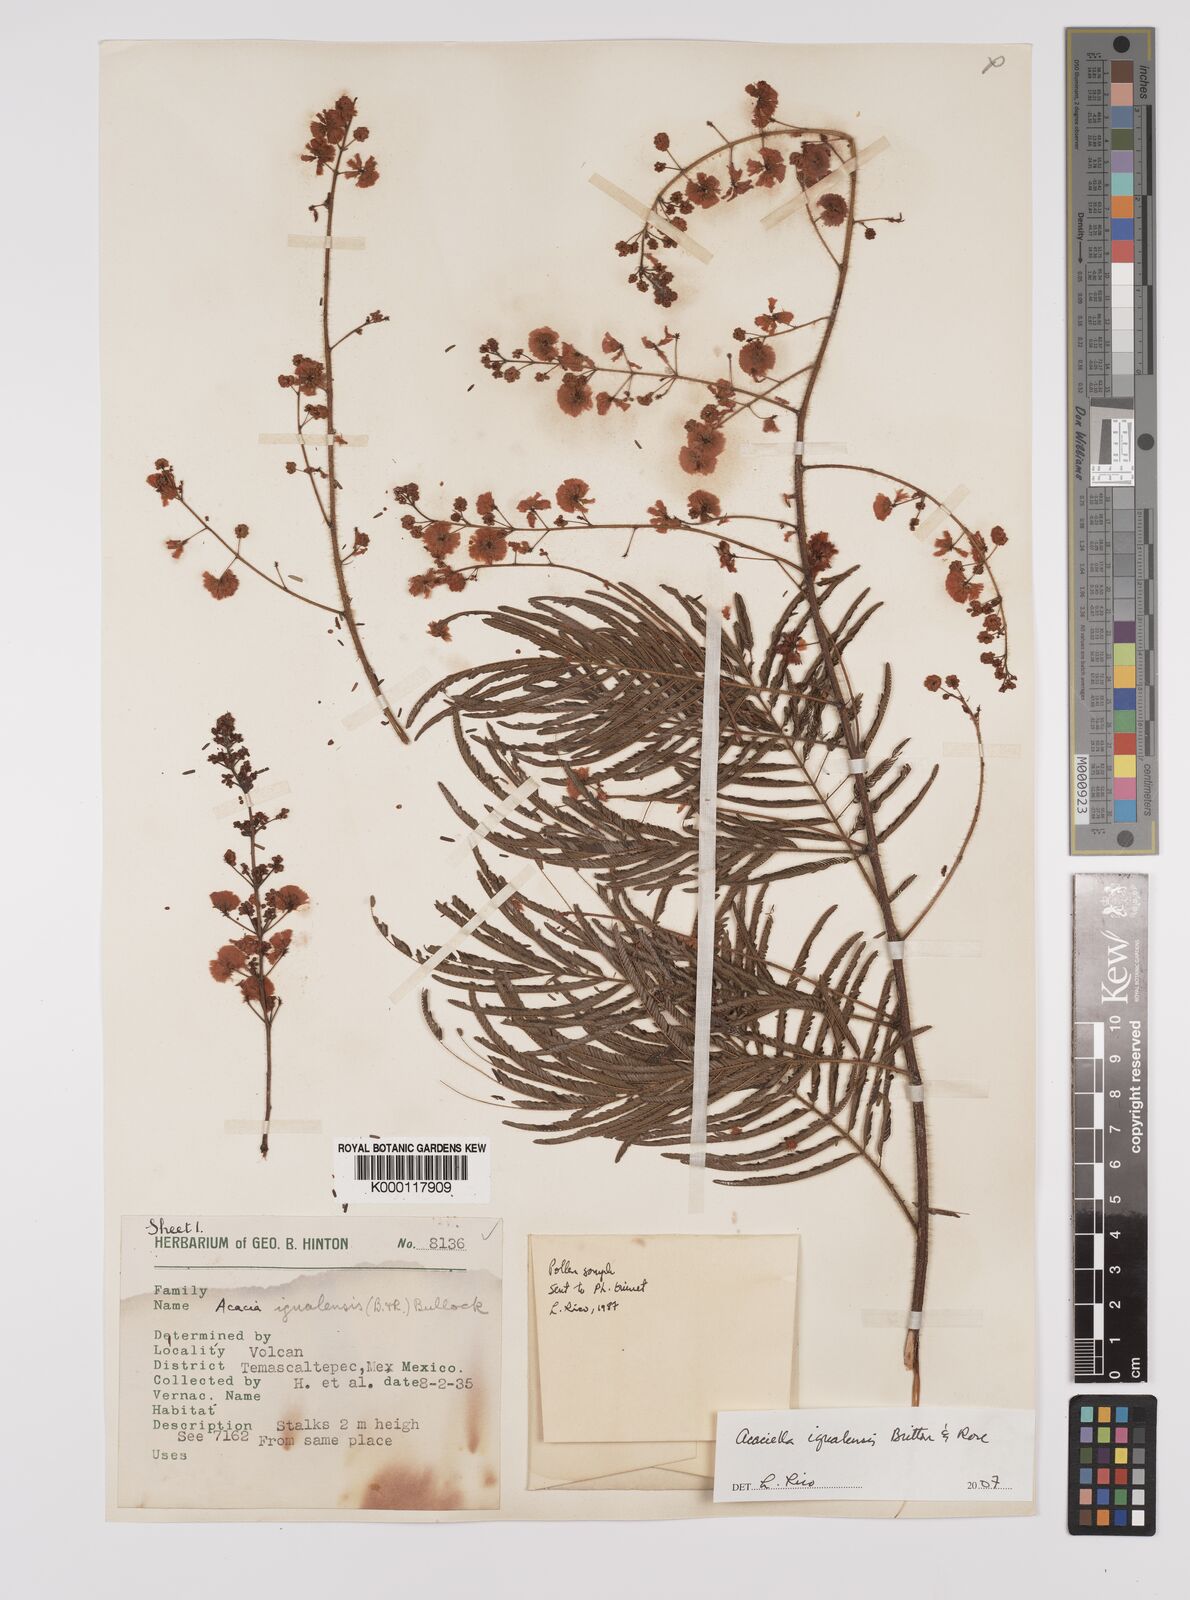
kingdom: Plantae
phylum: Tracheophyta
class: Magnoliopsida
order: Fabales
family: Fabaceae
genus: Acaciella
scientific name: Acaciella igualensis
